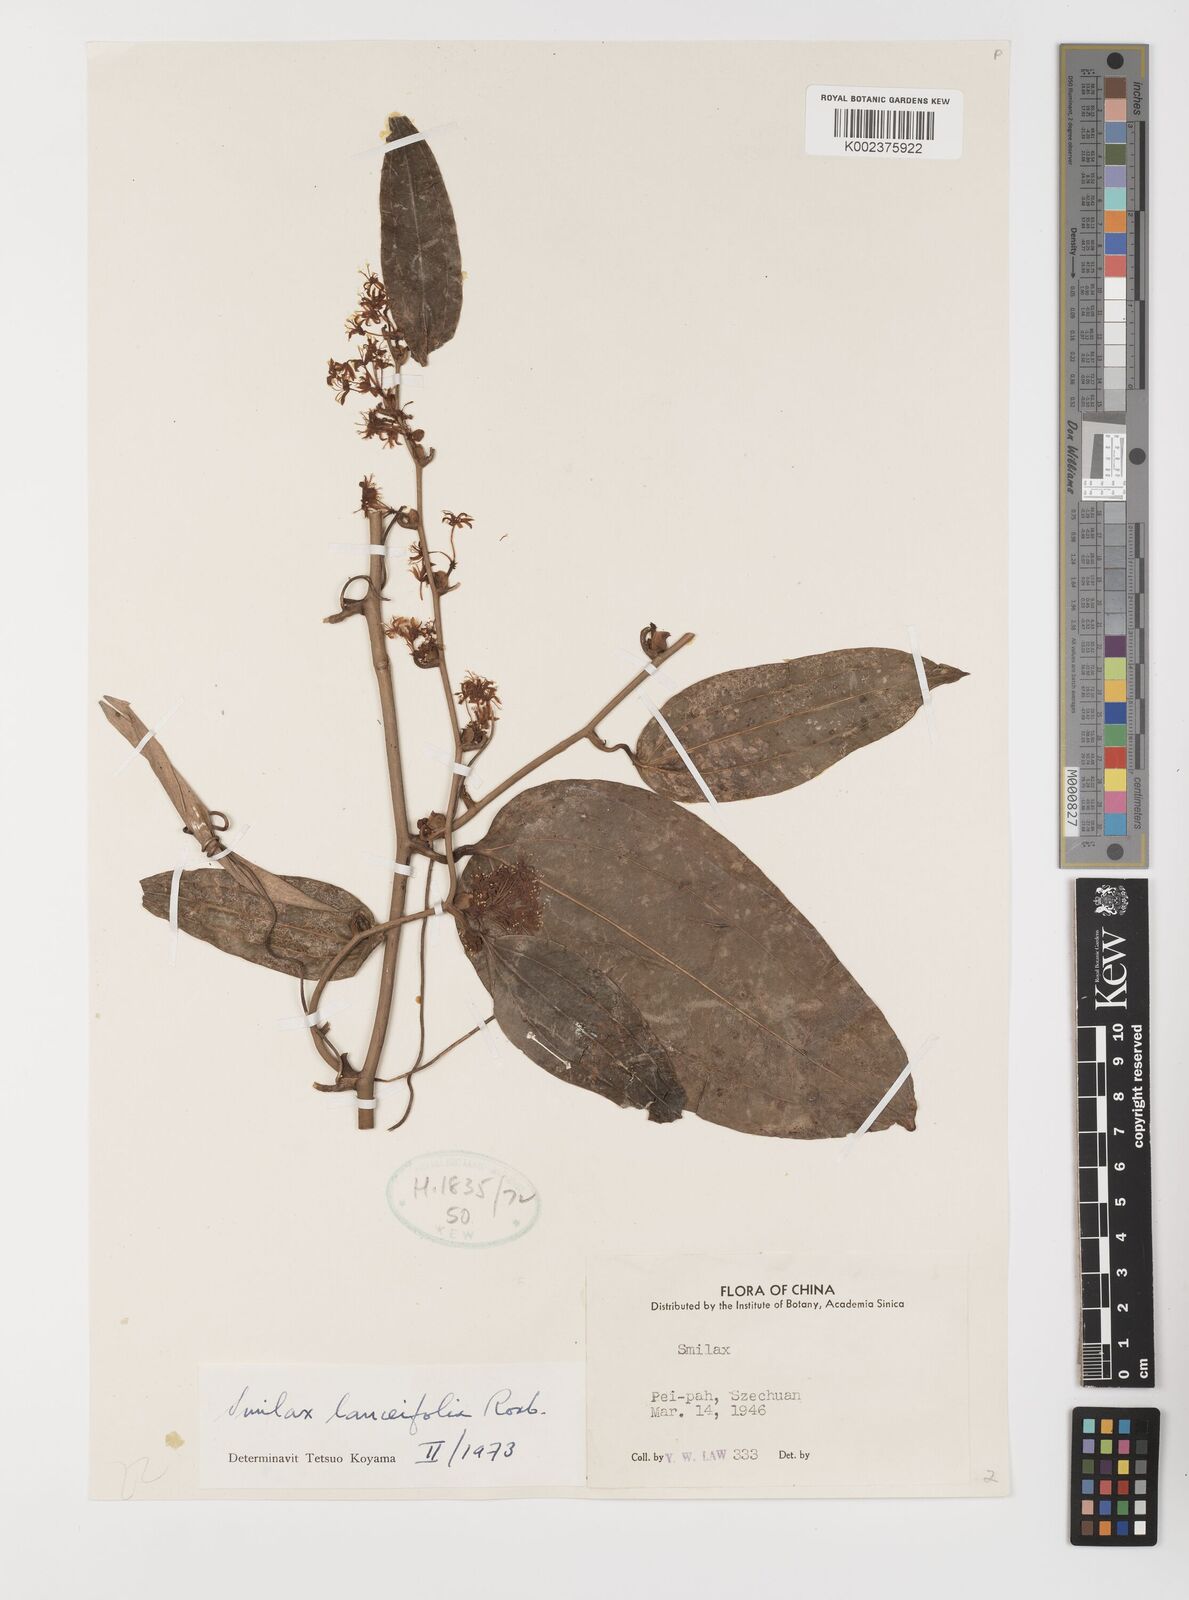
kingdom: Plantae
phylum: Tracheophyta
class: Liliopsida
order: Liliales
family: Smilacaceae
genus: Smilax
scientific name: Smilax lanceifolia
